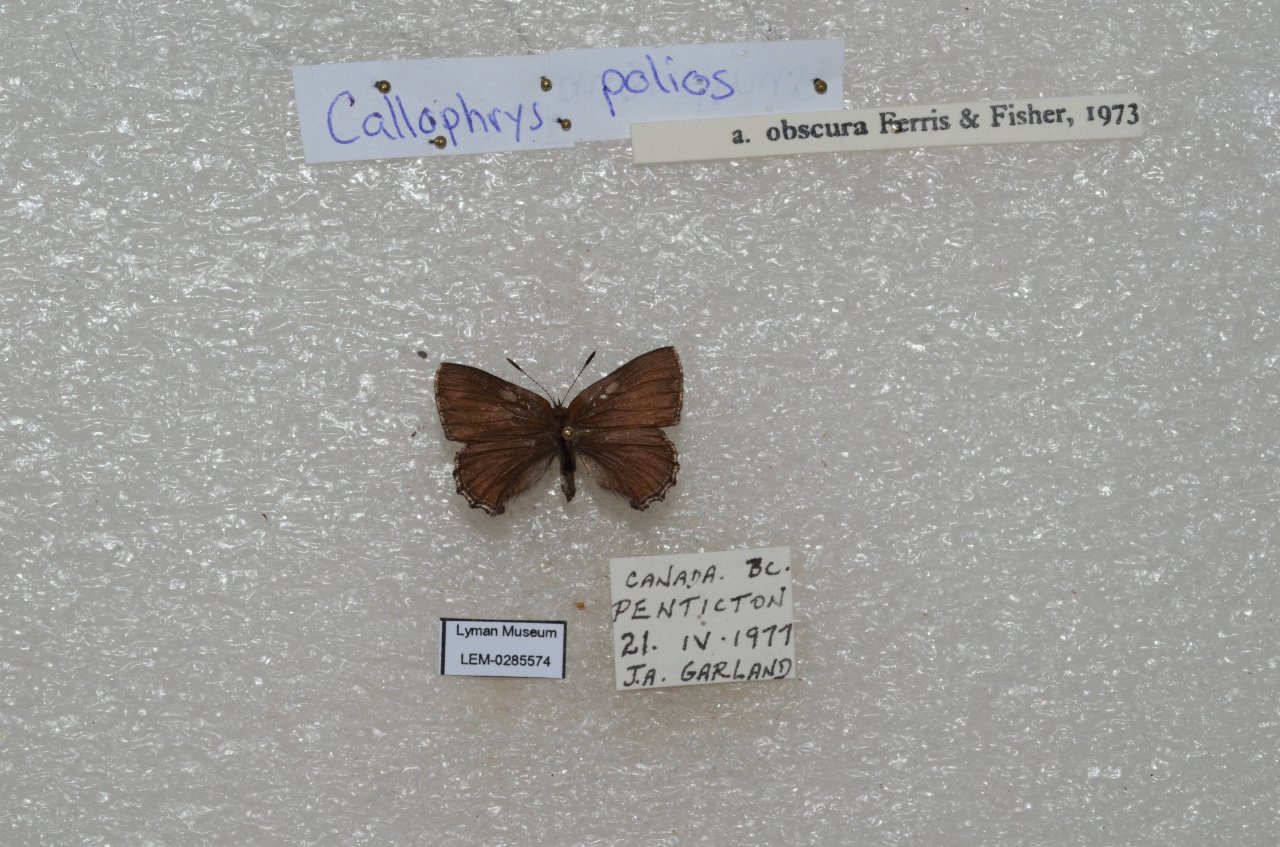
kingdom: Animalia
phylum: Arthropoda
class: Insecta
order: Lepidoptera
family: Lycaenidae
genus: Callophrys
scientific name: Callophrys polios
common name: Hoary Elfin
